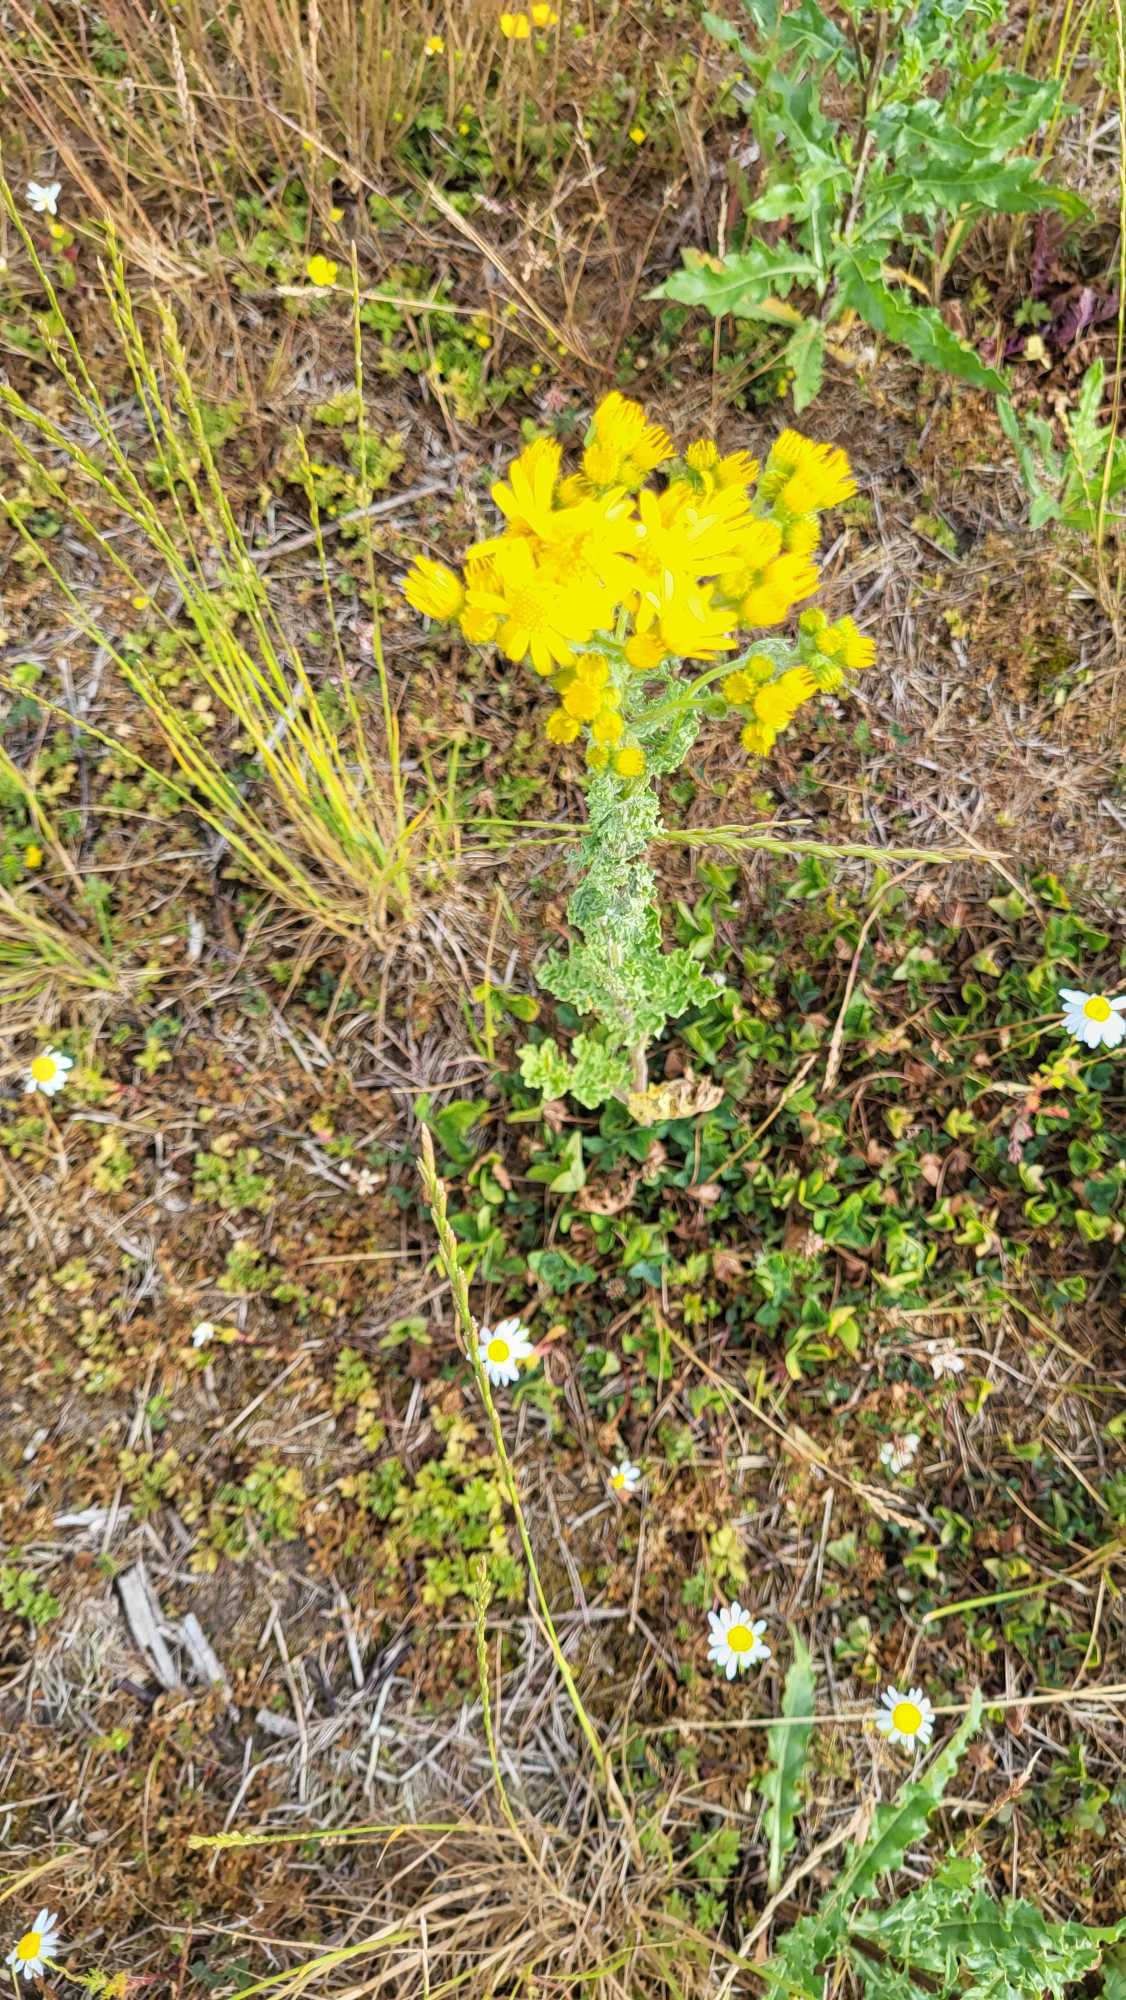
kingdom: Plantae
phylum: Tracheophyta
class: Magnoliopsida
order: Asterales
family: Asteraceae
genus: Jacobaea
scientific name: Jacobaea vulgaris
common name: Eng-brandbæger
